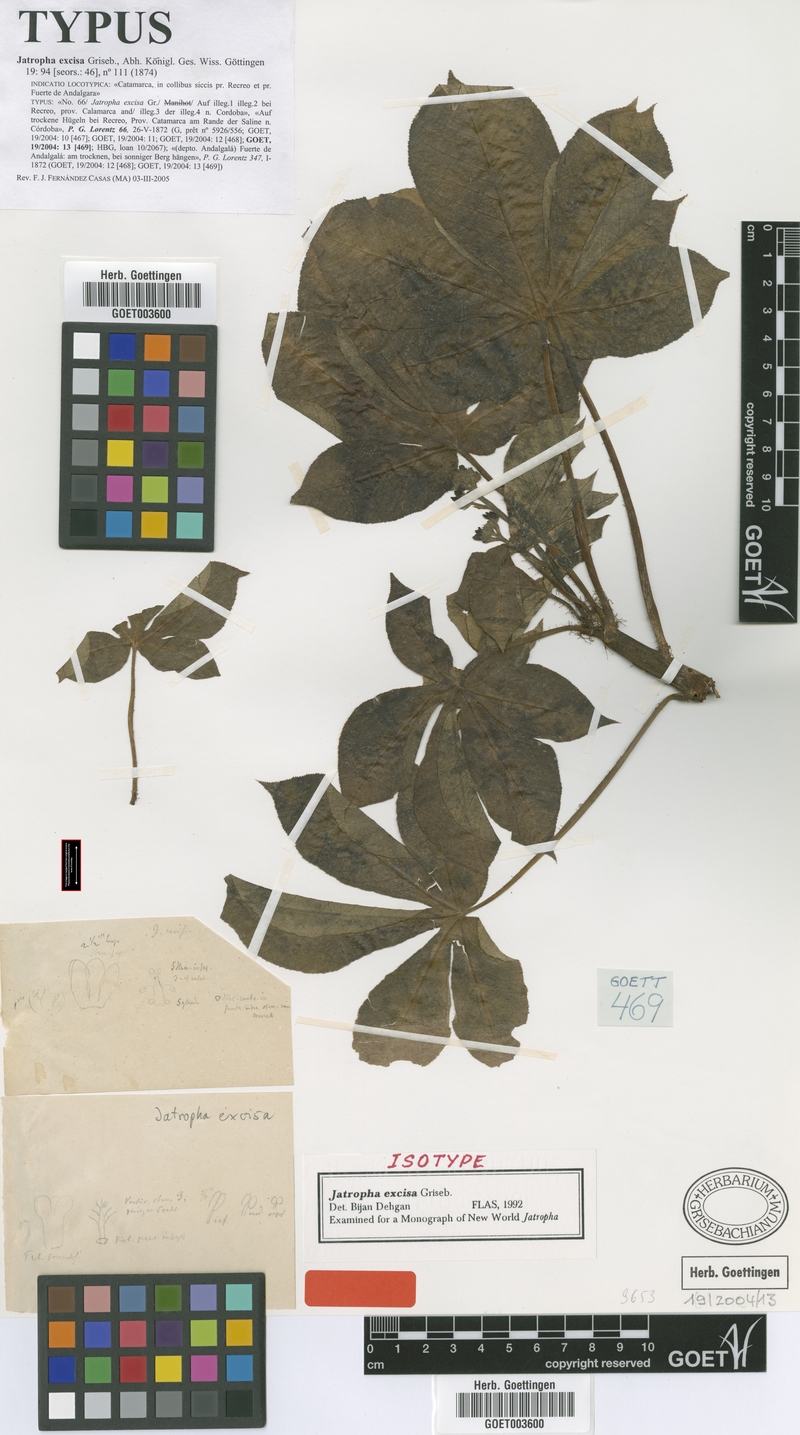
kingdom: Plantae
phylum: Tracheophyta
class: Magnoliopsida
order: Malpighiales
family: Euphorbiaceae
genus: Jatropha
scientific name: Jatropha excisa
